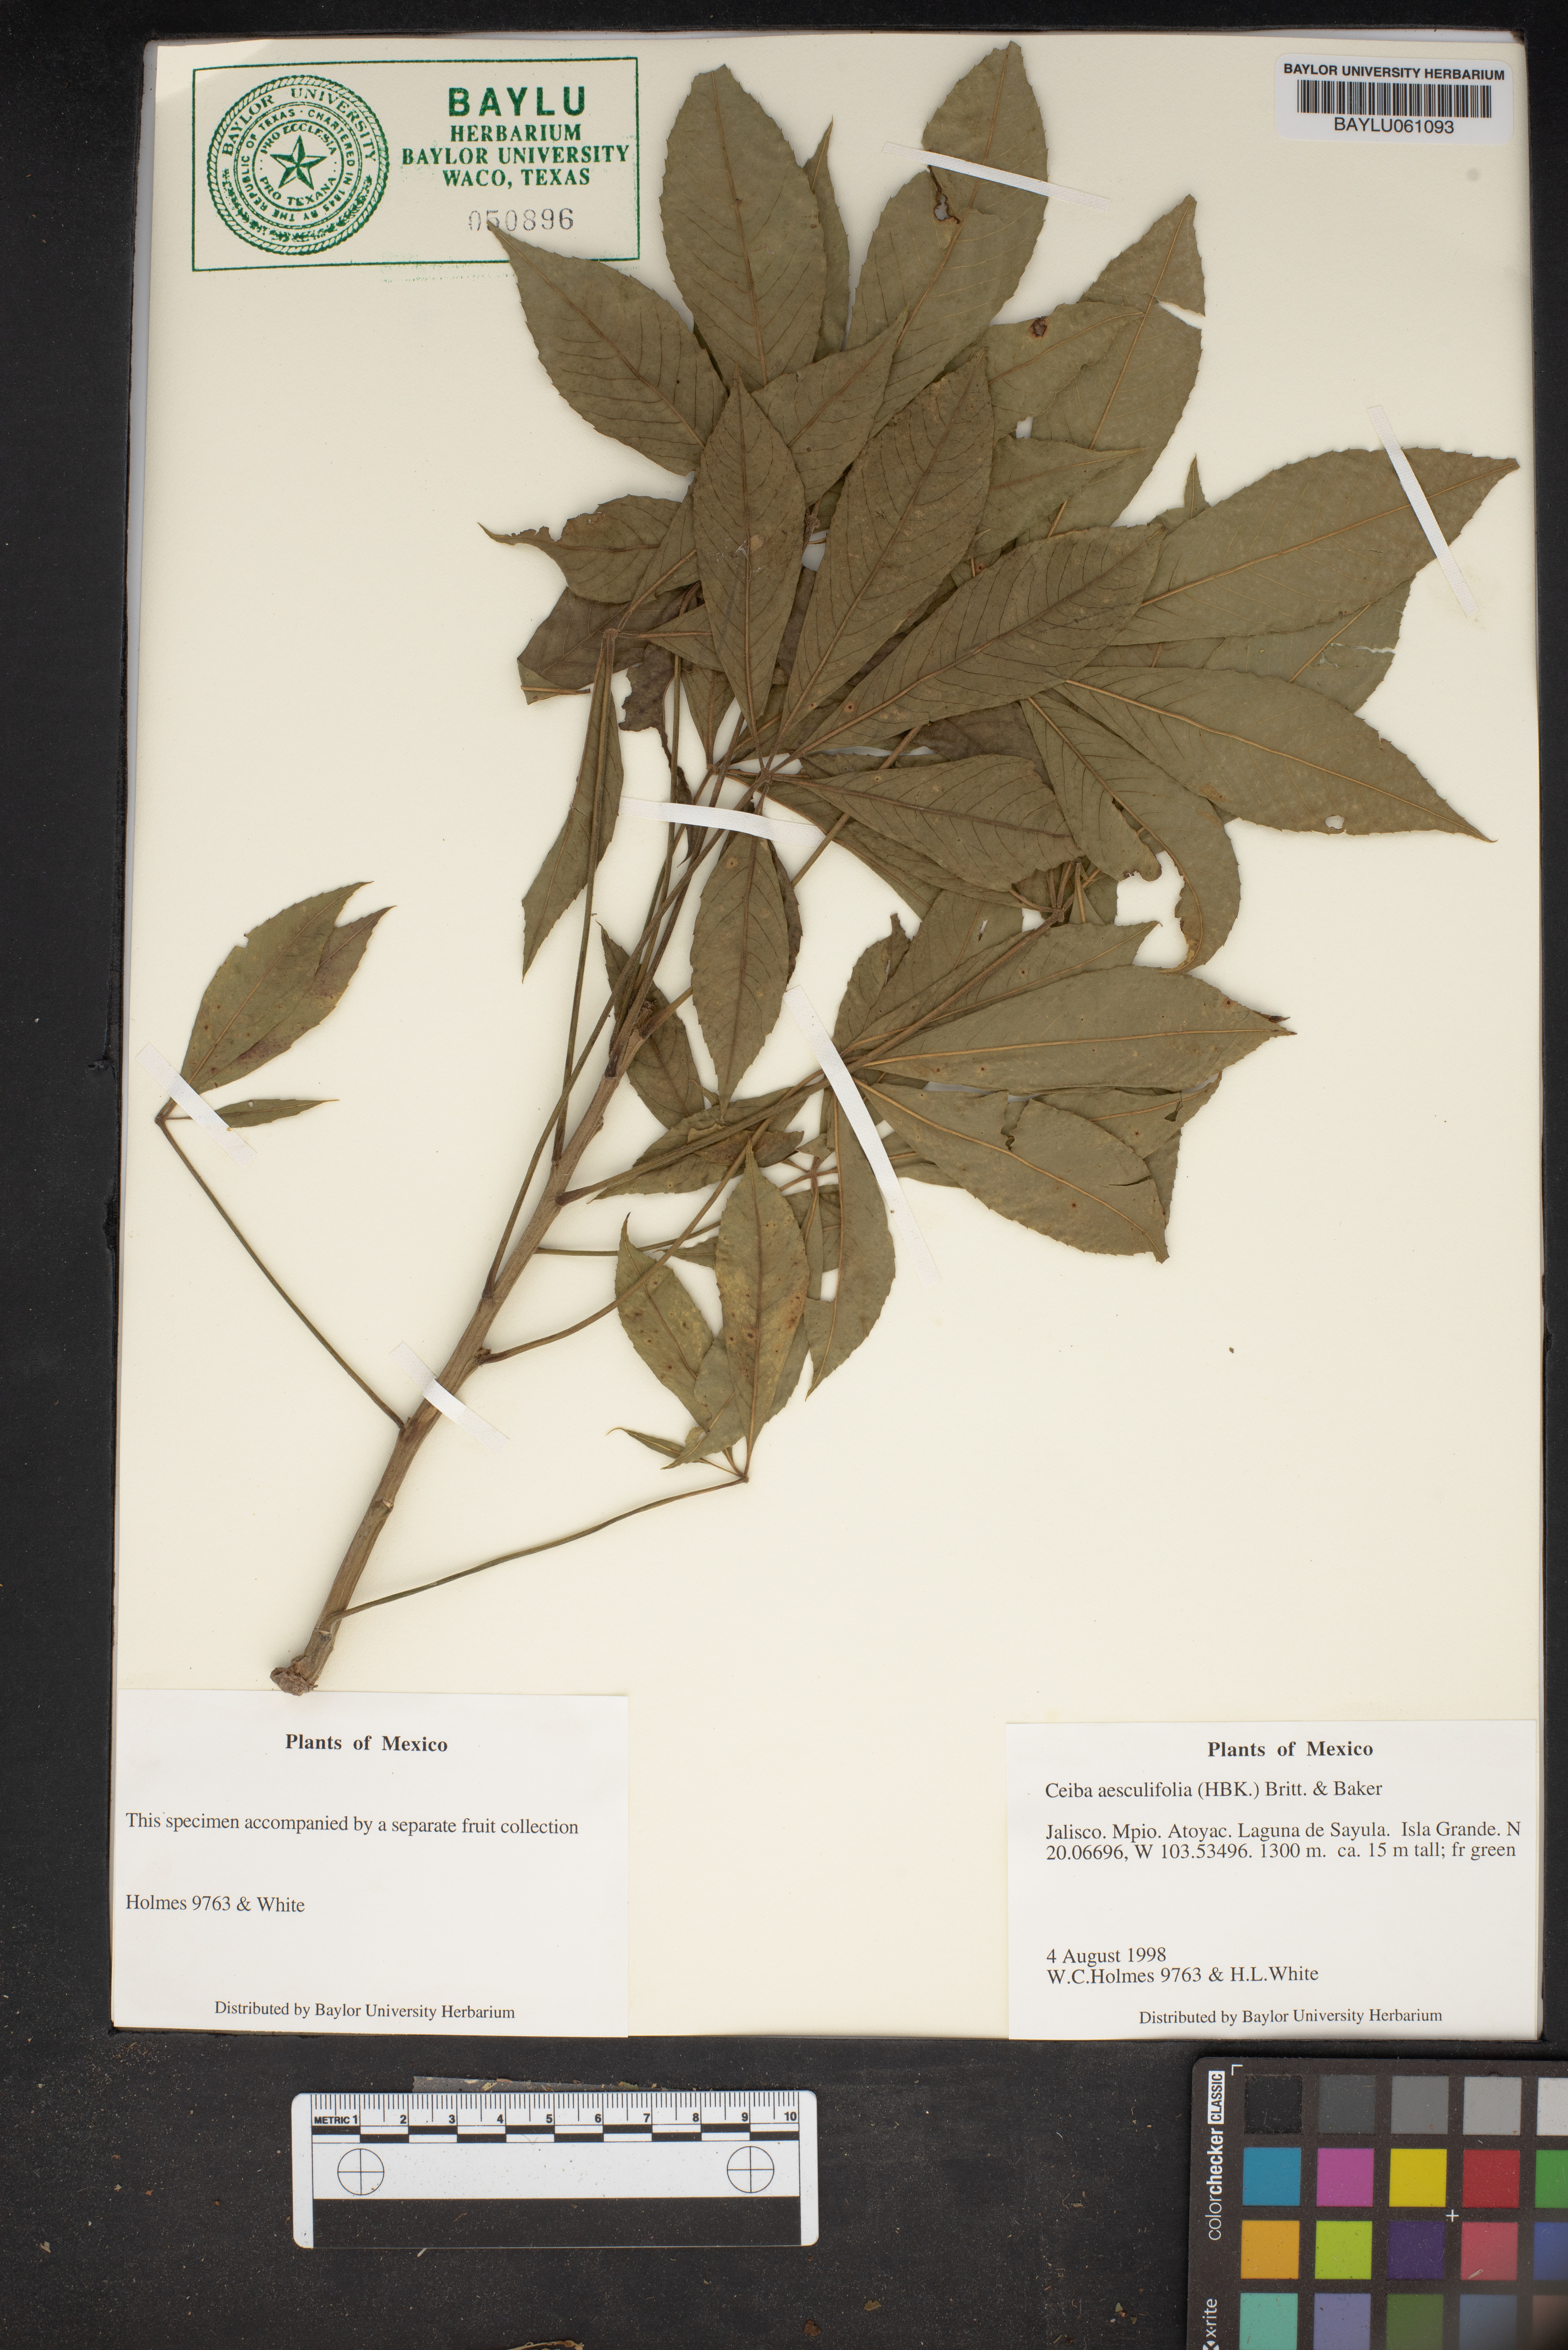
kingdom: Plantae
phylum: Tracheophyta
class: Magnoliopsida
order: Malvales
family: Malvaceae
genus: Ceiba
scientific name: Ceiba aesculifolia
